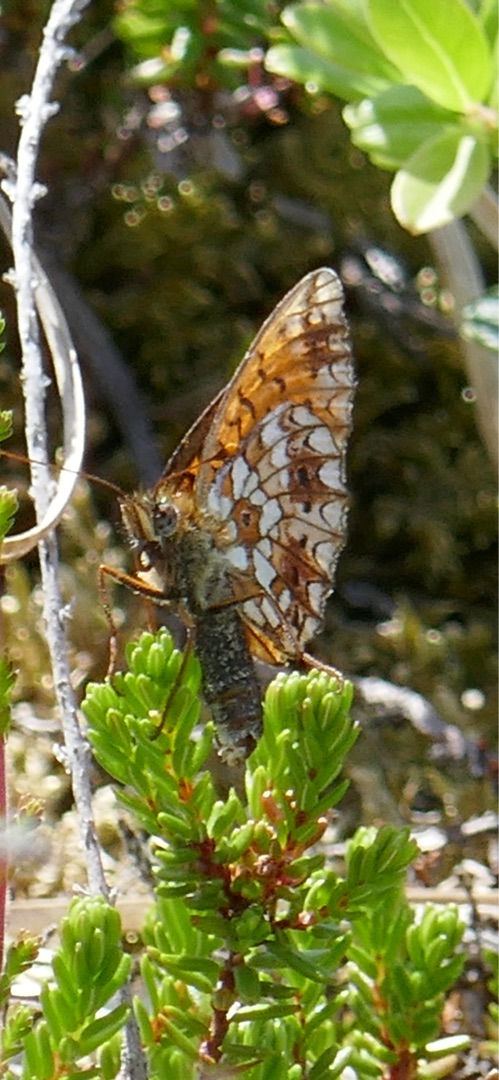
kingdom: Animalia
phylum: Arthropoda
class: Insecta
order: Lepidoptera
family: Nymphalidae
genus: Boloria
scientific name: Boloria selene
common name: Brunlig perlemorsommerfugl
